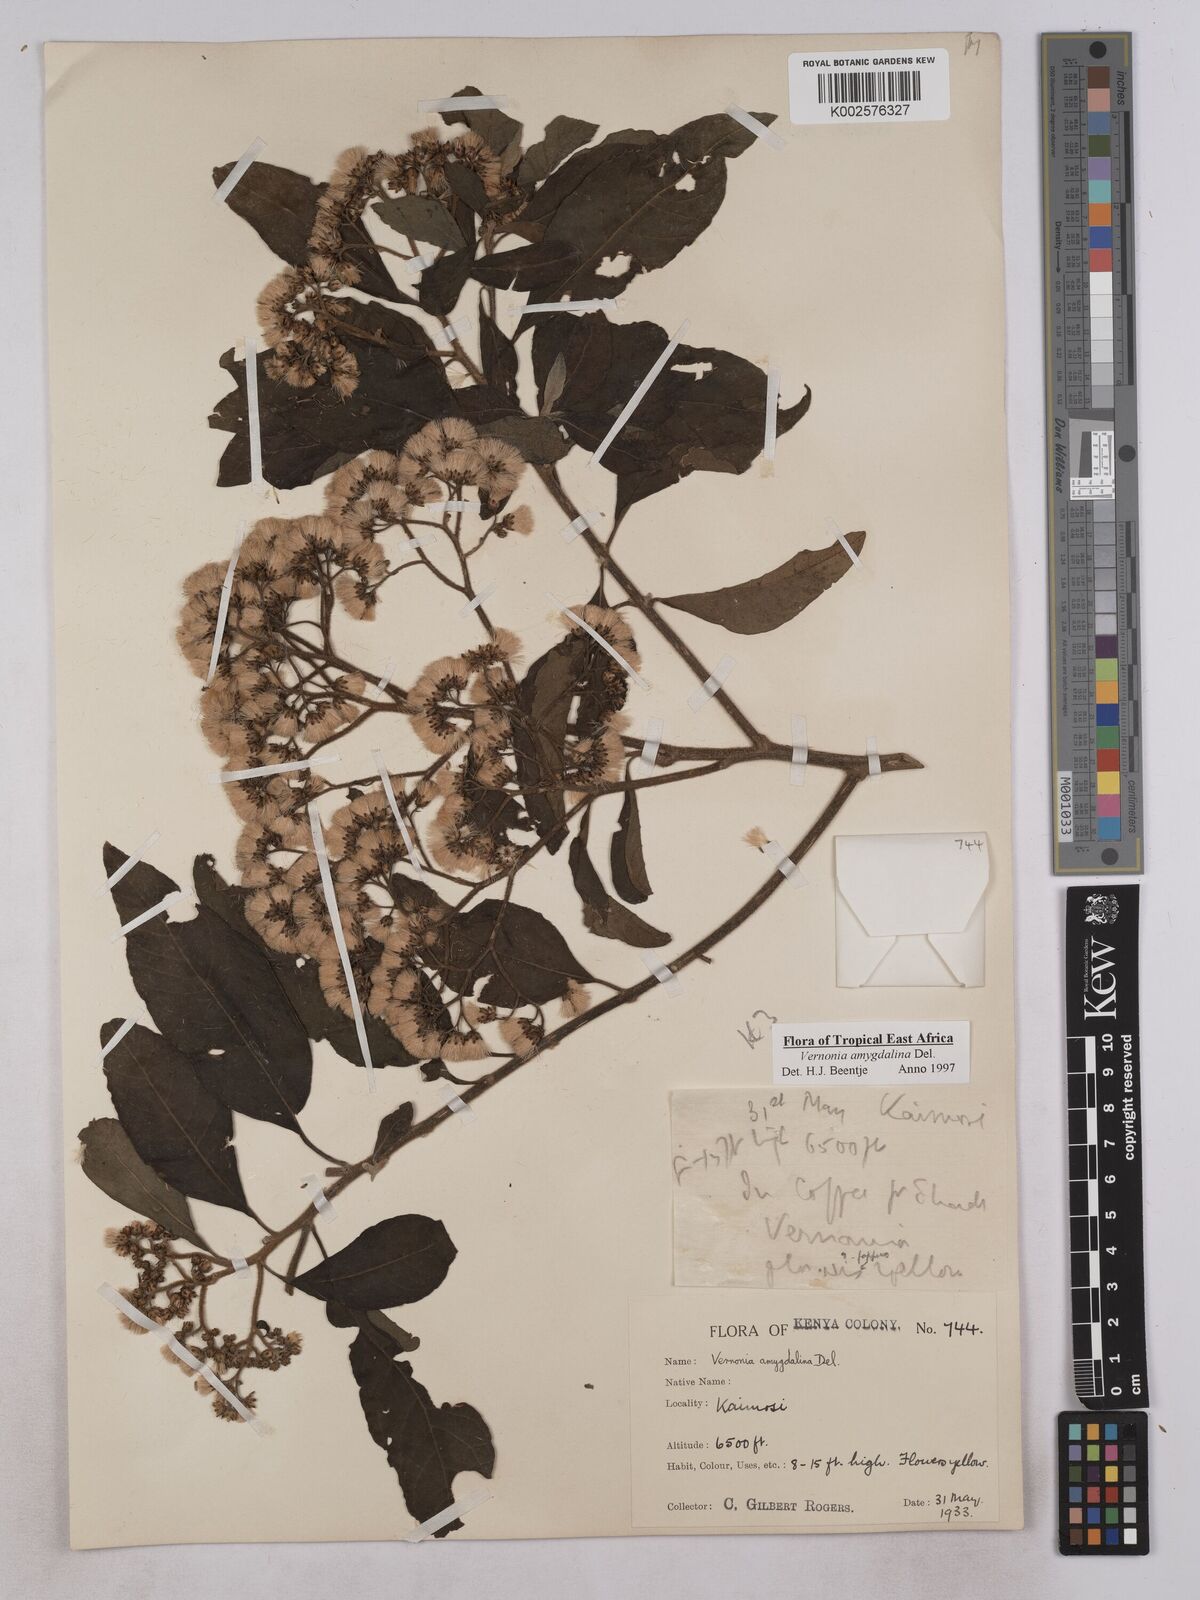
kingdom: Plantae
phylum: Tracheophyta
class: Magnoliopsida
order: Asterales
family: Asteraceae
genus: Gymnanthemum
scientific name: Gymnanthemum amygdalinum
